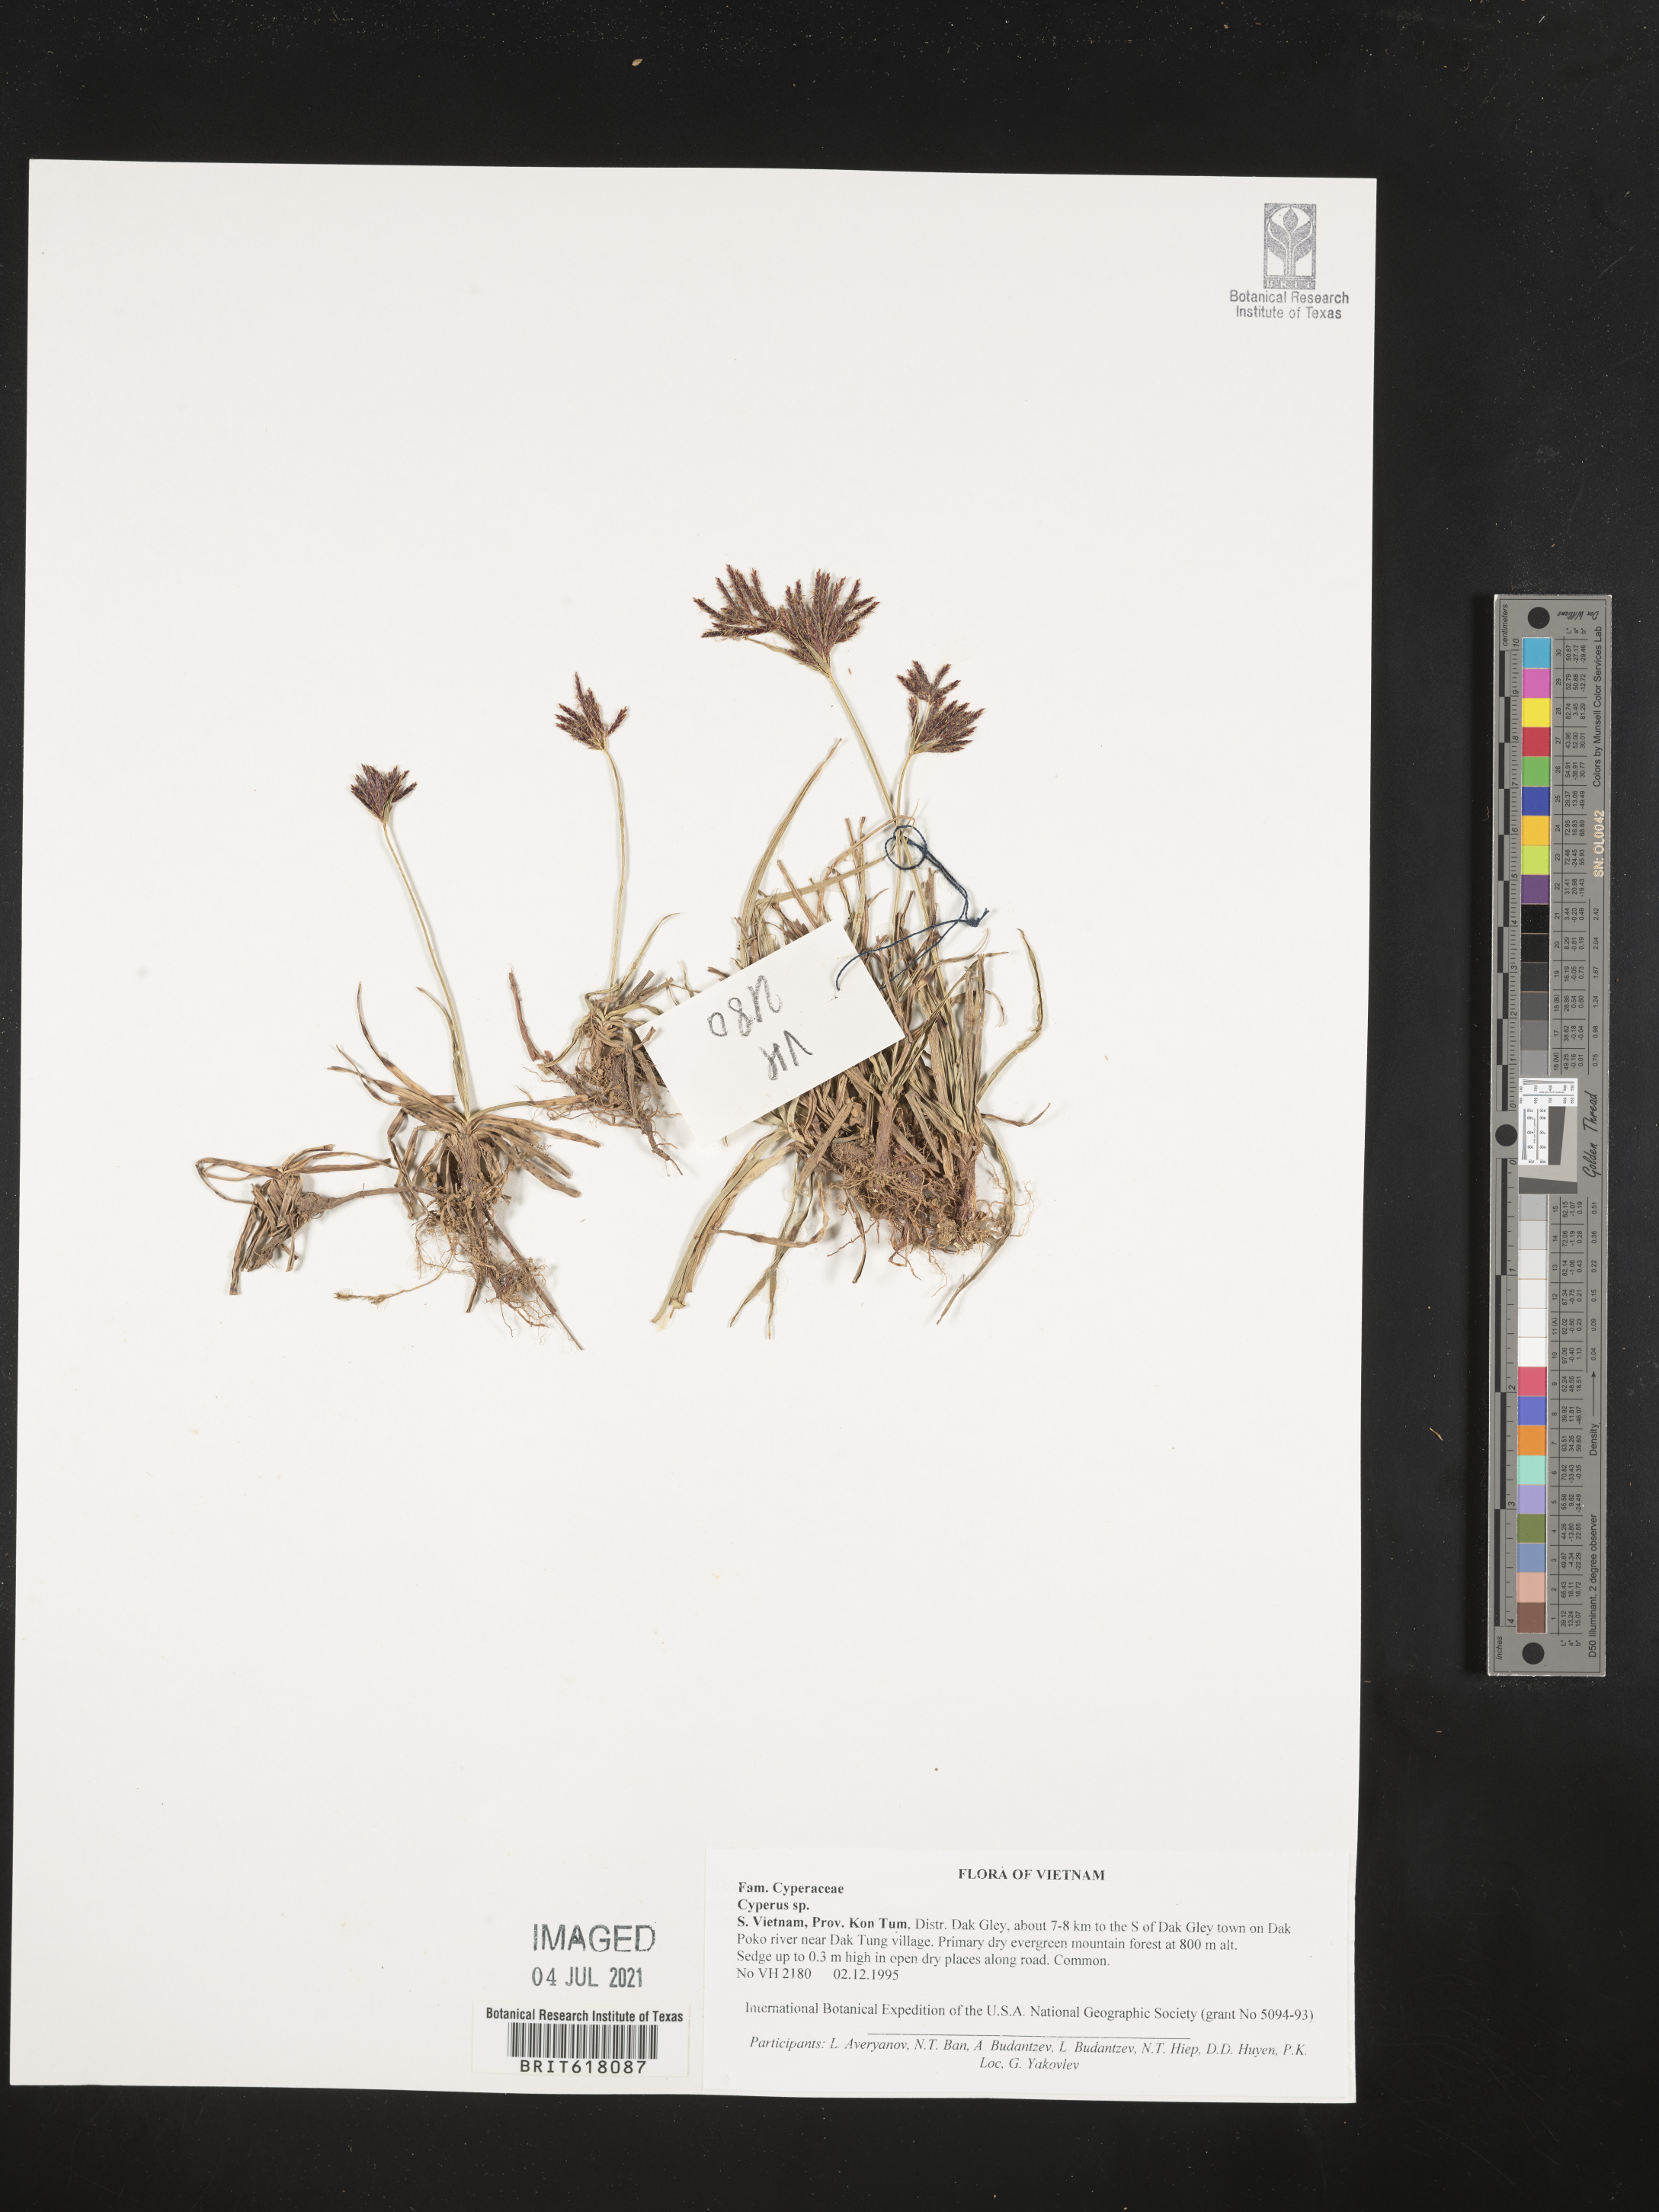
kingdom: Plantae
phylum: Tracheophyta
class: Liliopsida
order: Poales
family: Cyperaceae
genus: Cyperus
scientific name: Cyperus
